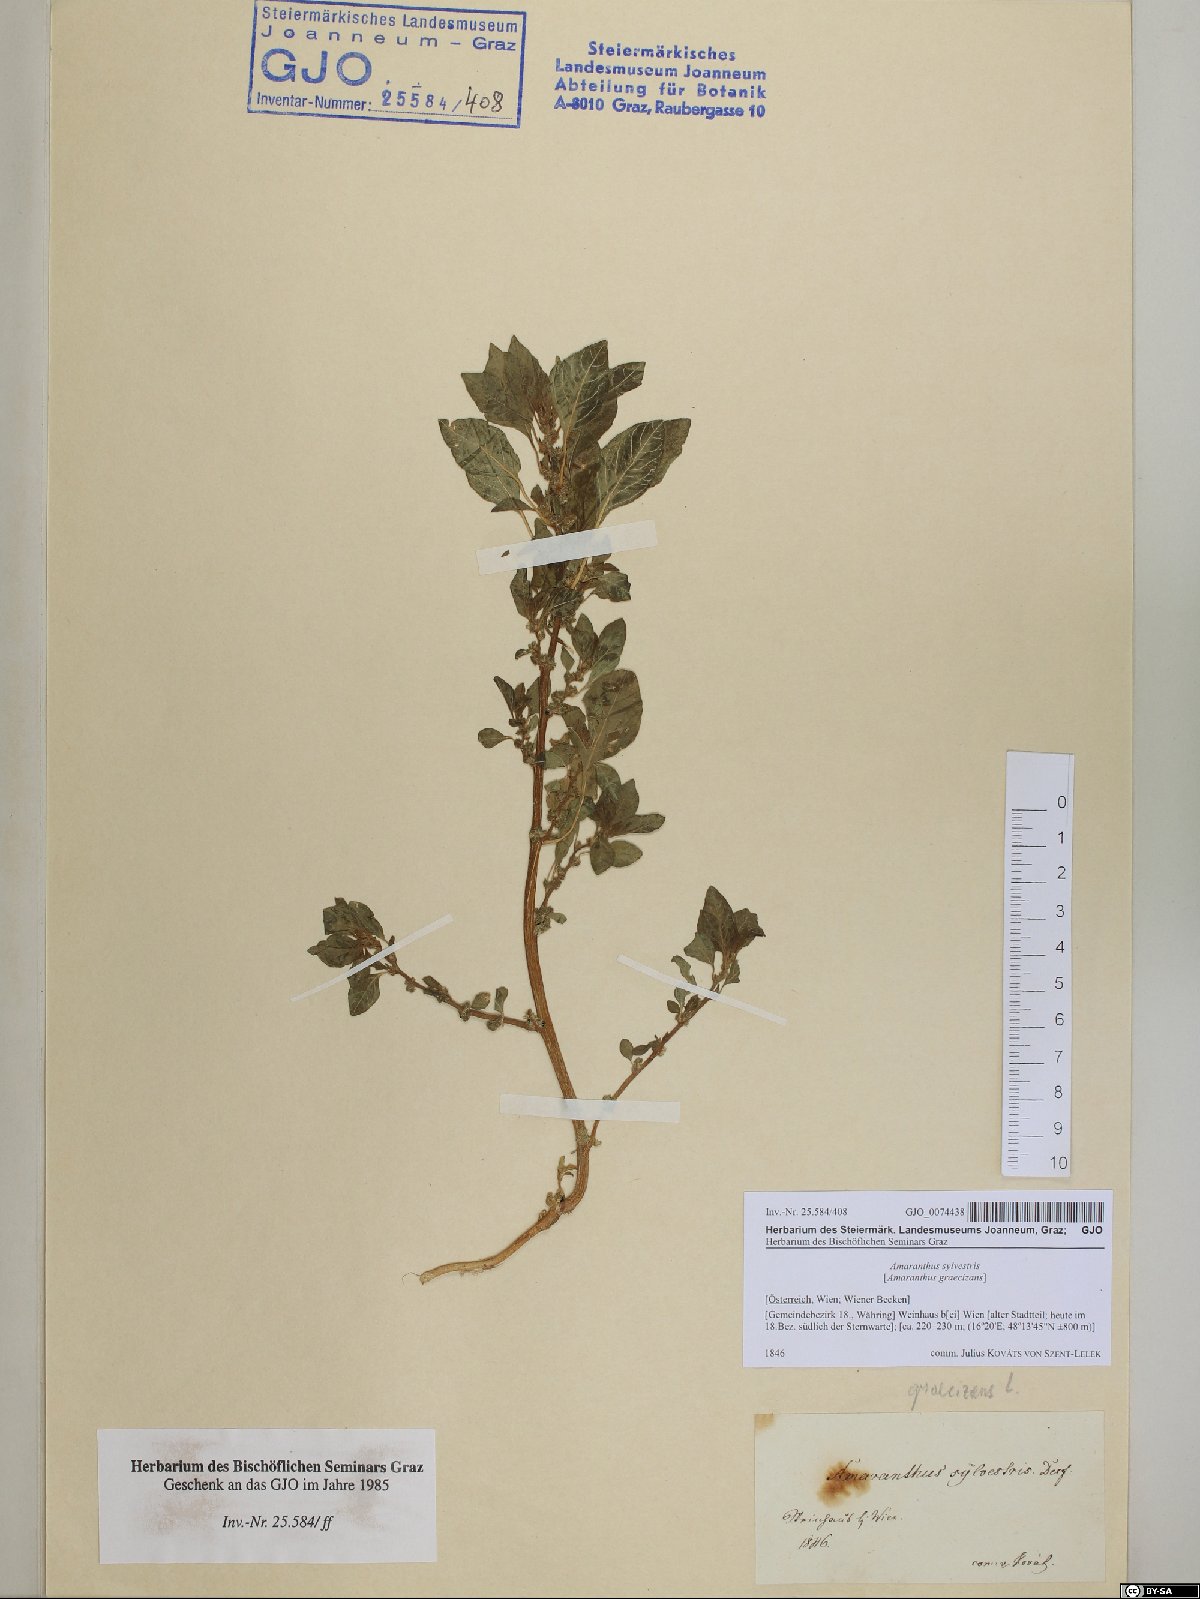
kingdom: Plantae
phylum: Tracheophyta
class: Magnoliopsida
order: Caryophyllales
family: Amaranthaceae
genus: Amaranthus
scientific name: Amaranthus graecizans
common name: Mediterranean amaranth
